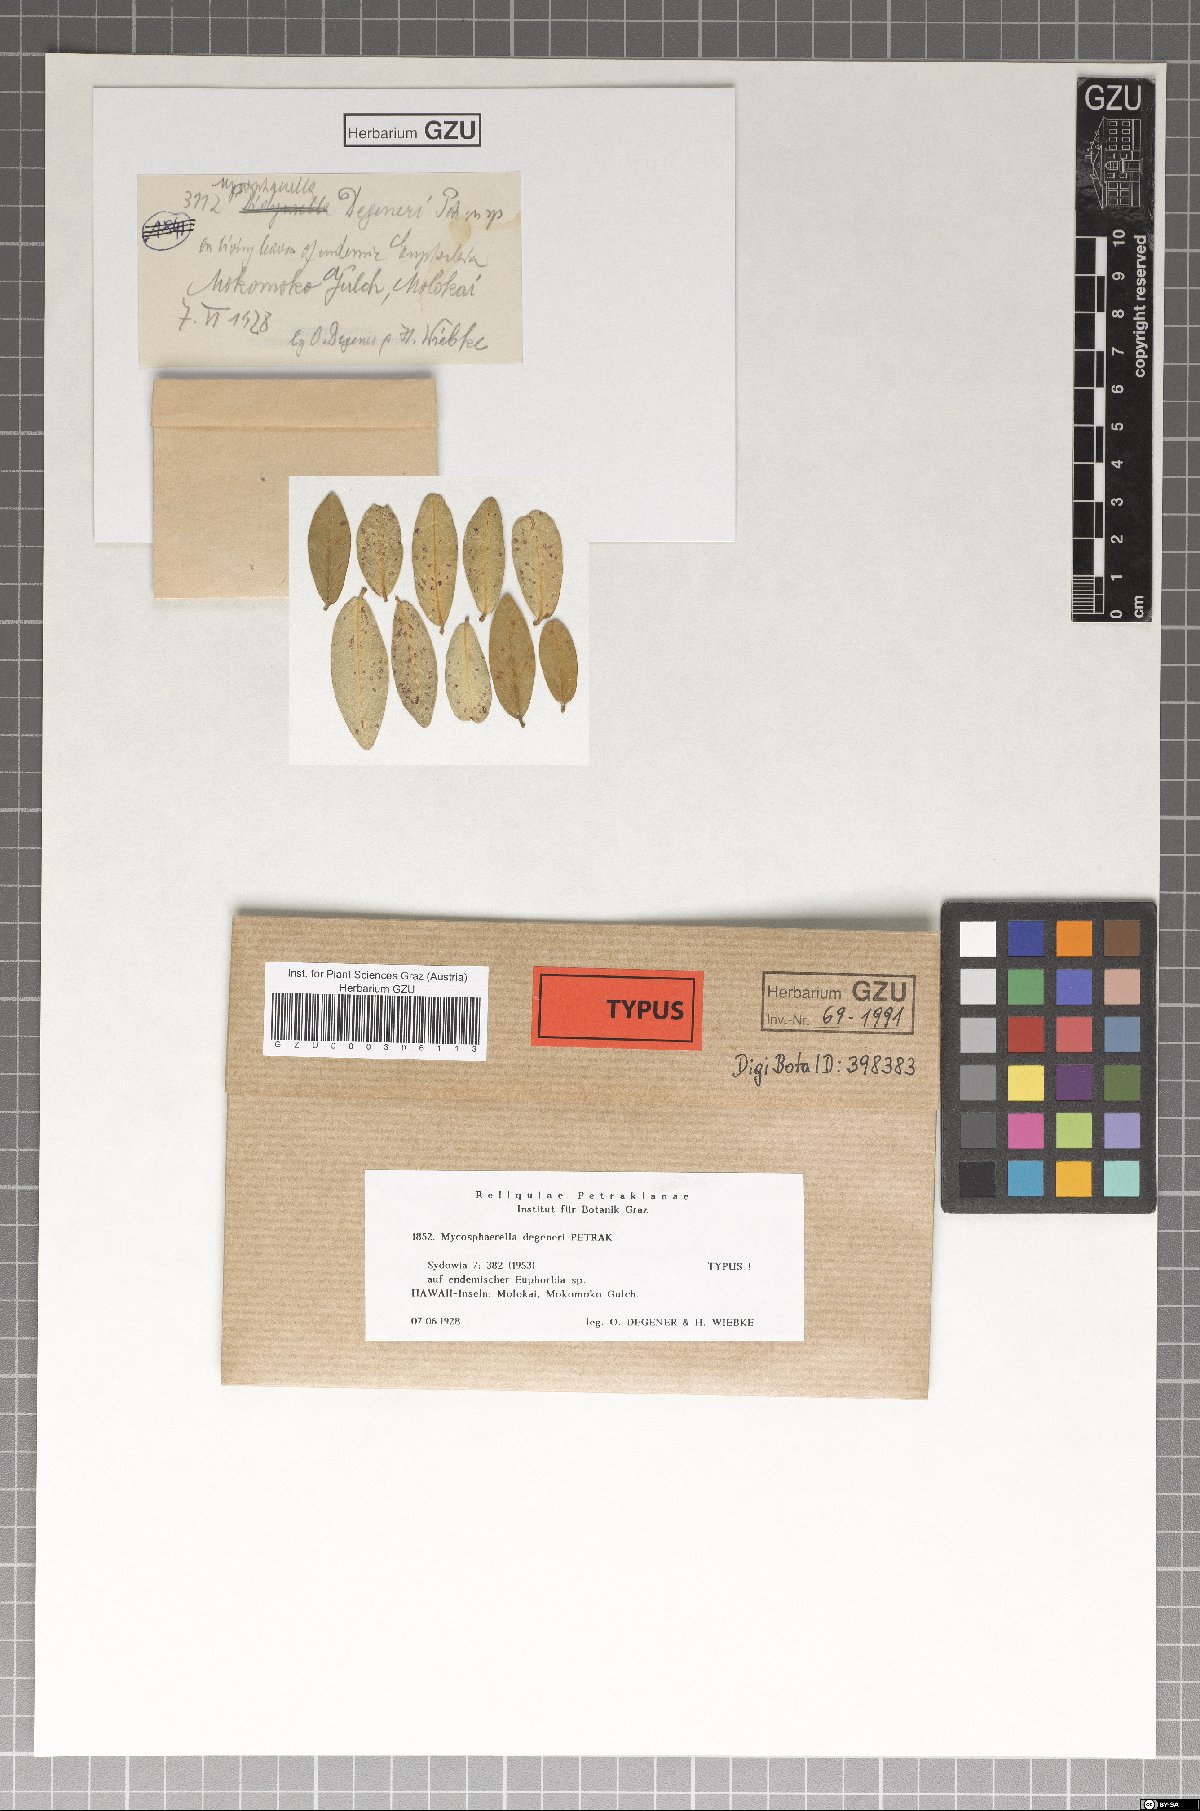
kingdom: Fungi
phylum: Ascomycota
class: Dothideomycetes
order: Mycosphaerellales
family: Mycosphaerellaceae
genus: Mycosphaerella
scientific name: Mycosphaerella degeneri
